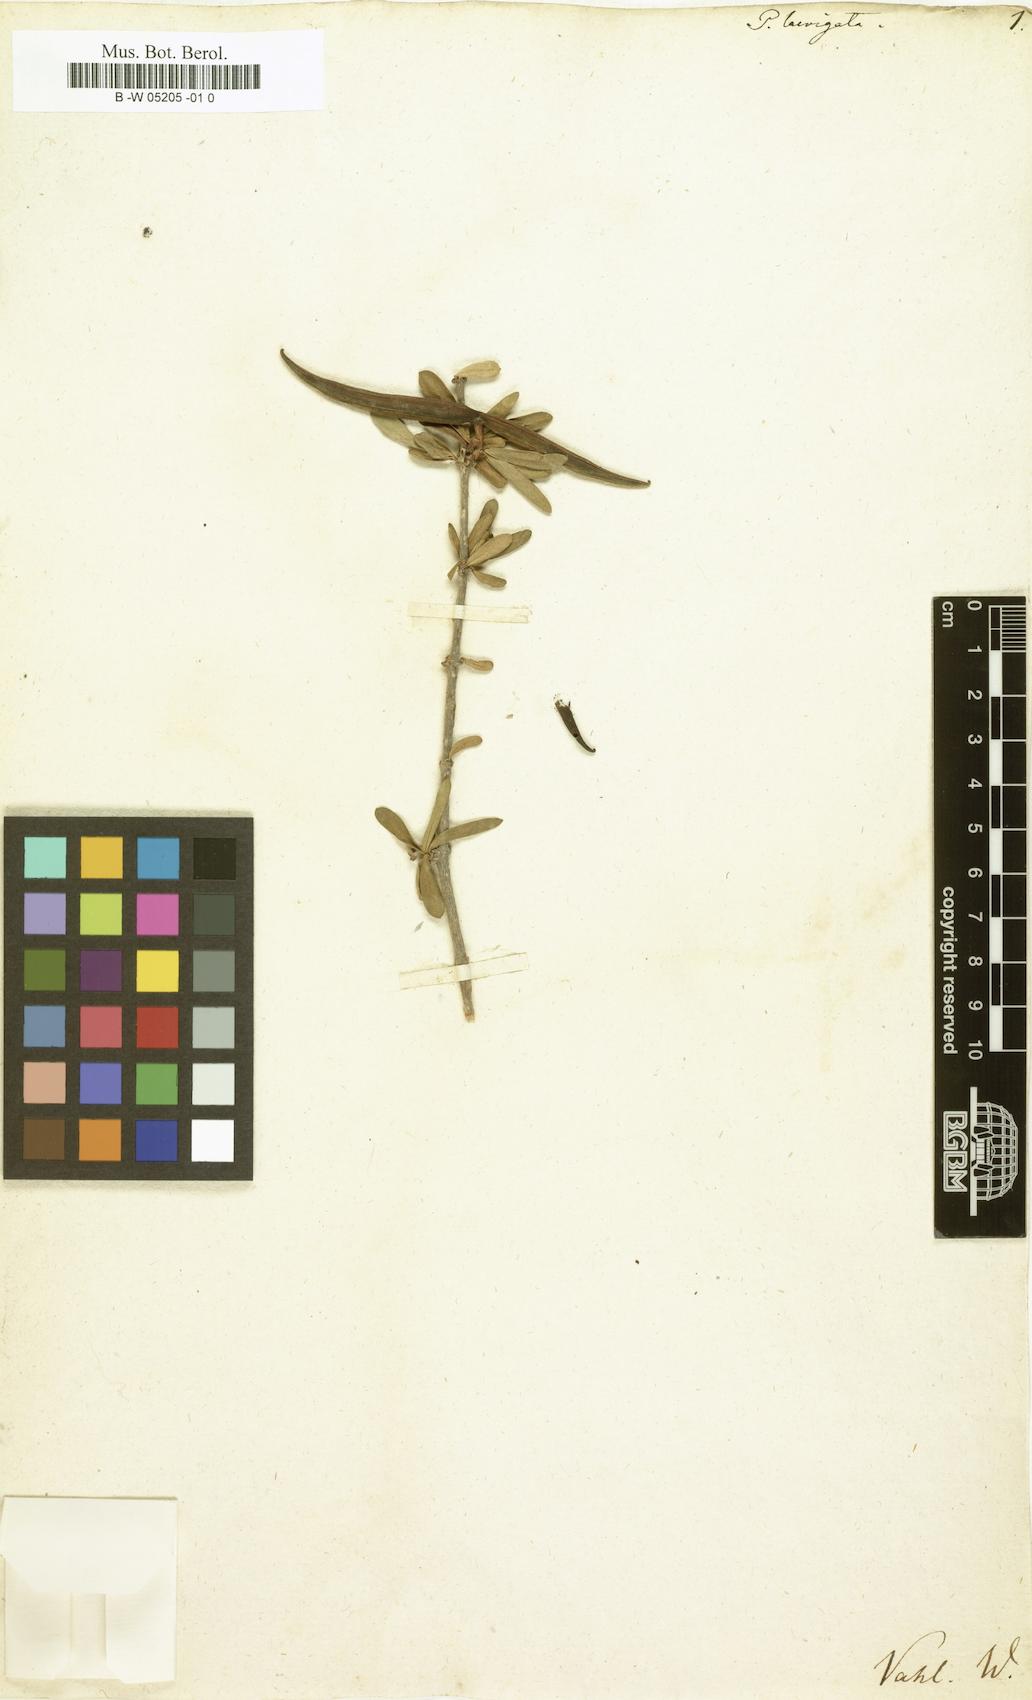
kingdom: Plantae
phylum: Tracheophyta
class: Magnoliopsida
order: Gentianales
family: Apocynaceae
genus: Periploca
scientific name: Periploca laevigata
